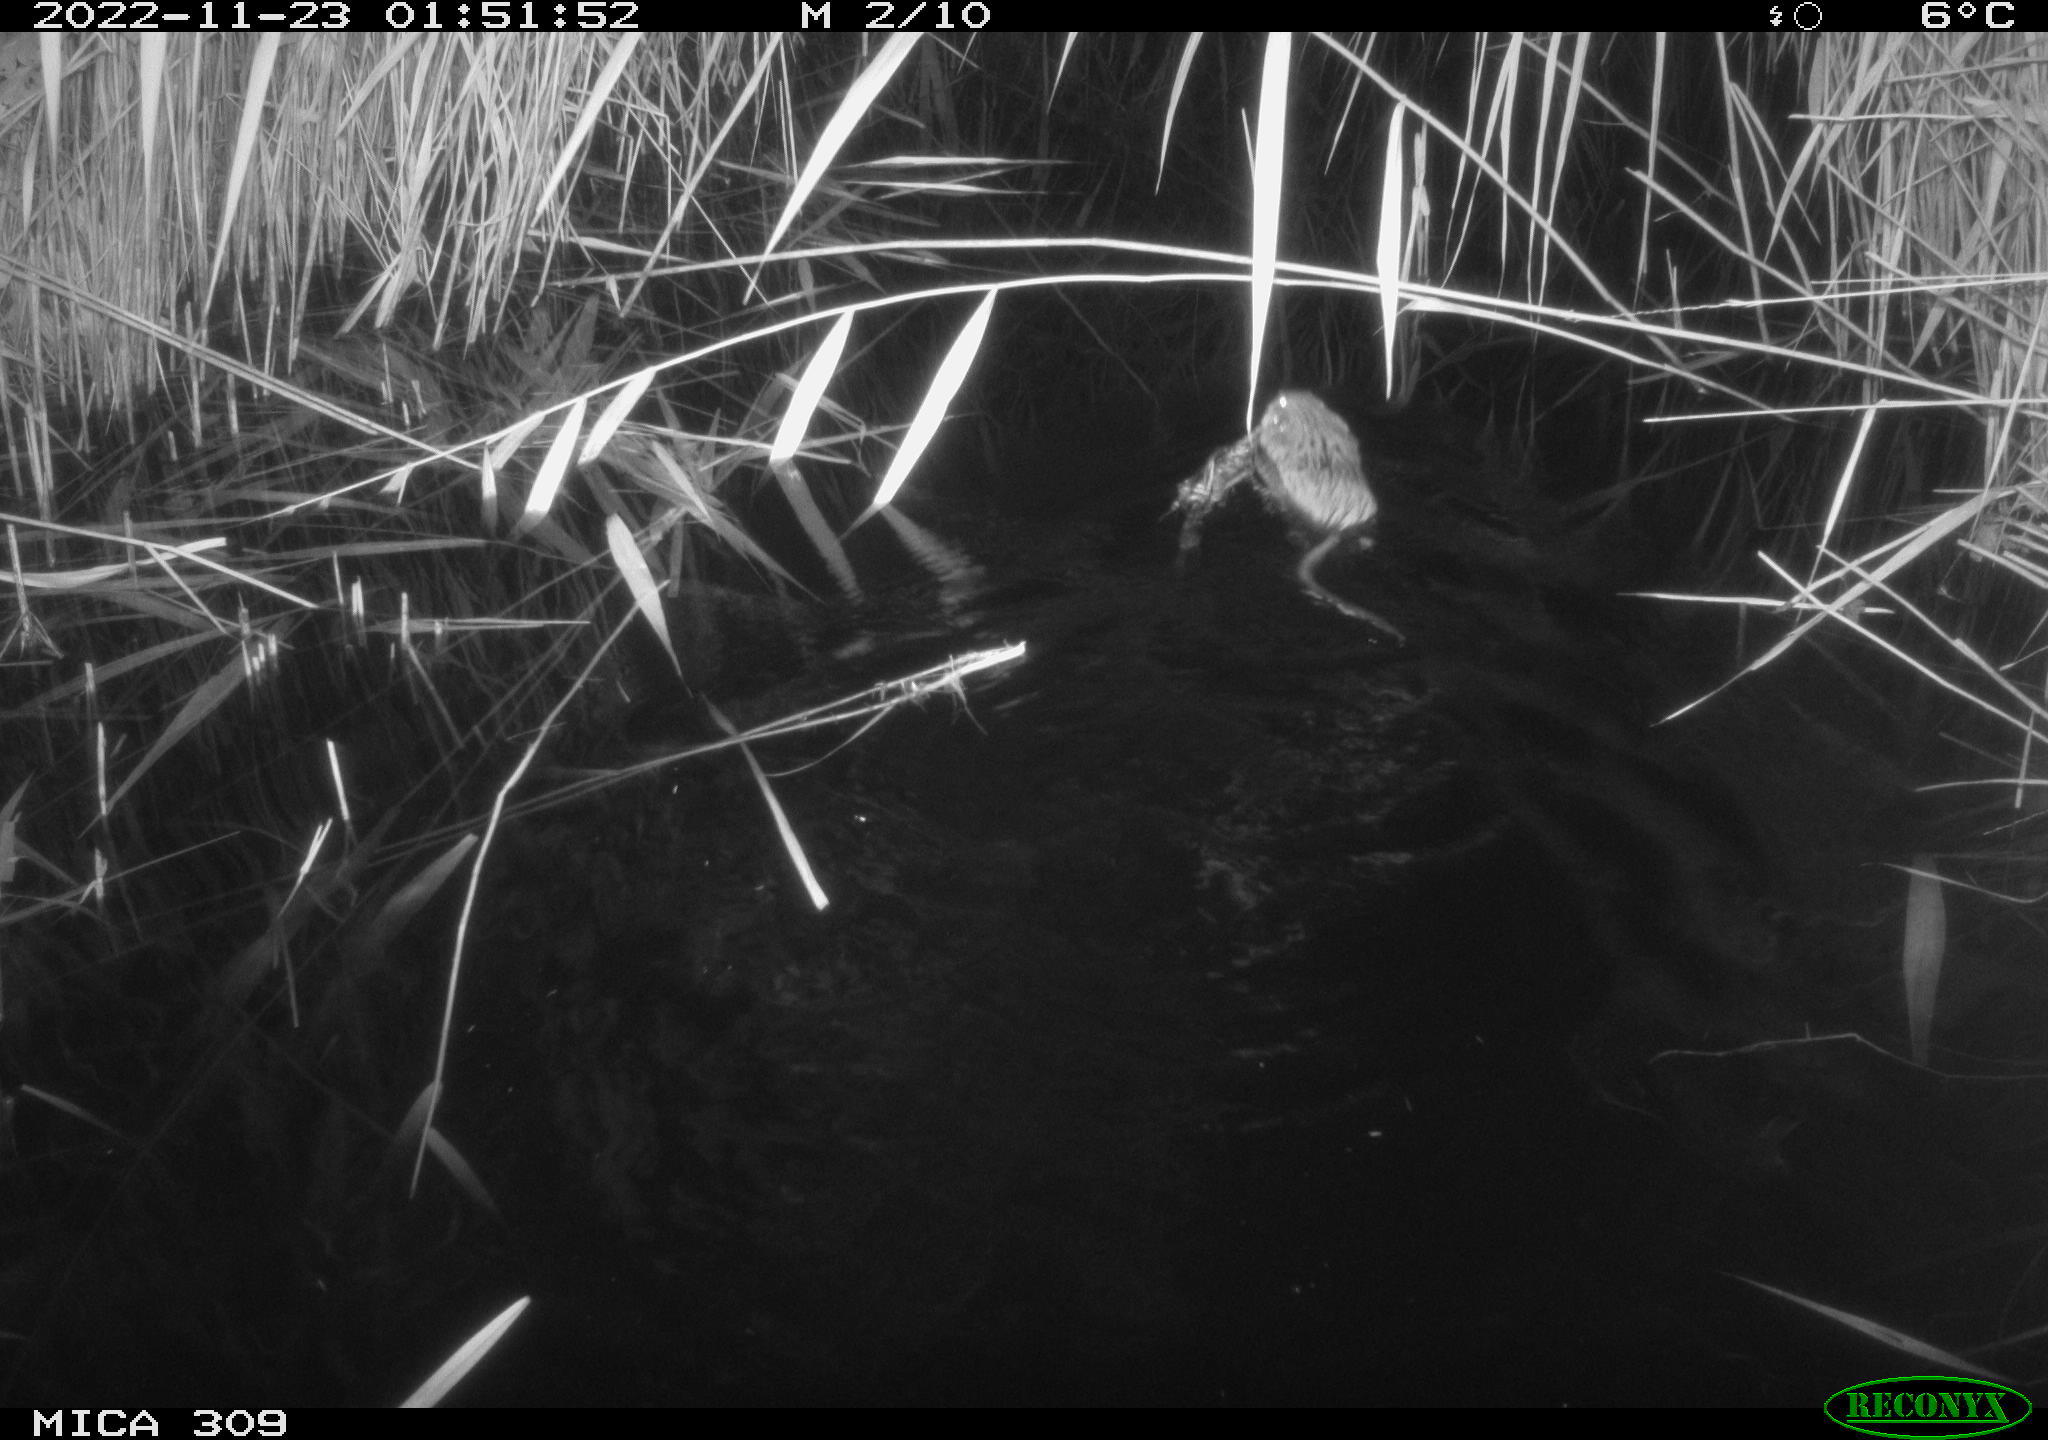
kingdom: Animalia
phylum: Chordata
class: Mammalia
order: Rodentia
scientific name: Rodentia
